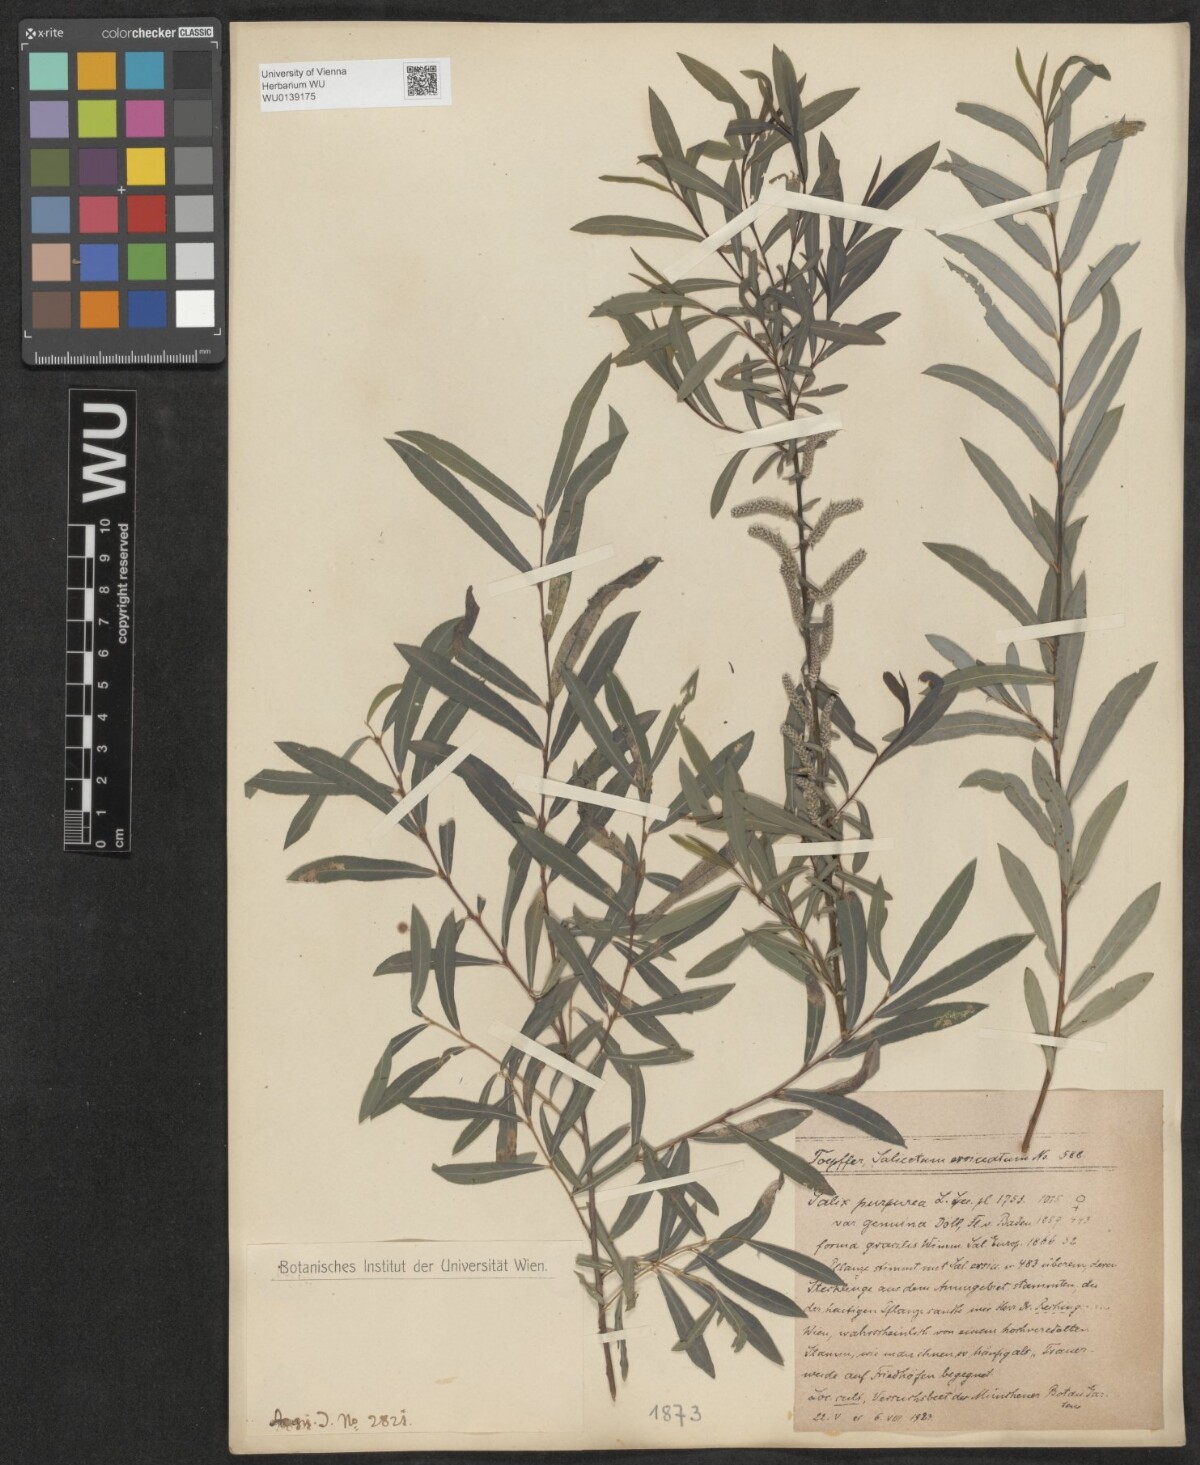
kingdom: Plantae
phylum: Tracheophyta
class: Magnoliopsida
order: Malpighiales
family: Salicaceae
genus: Salix
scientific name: Salix purpurea
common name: Purple willow
